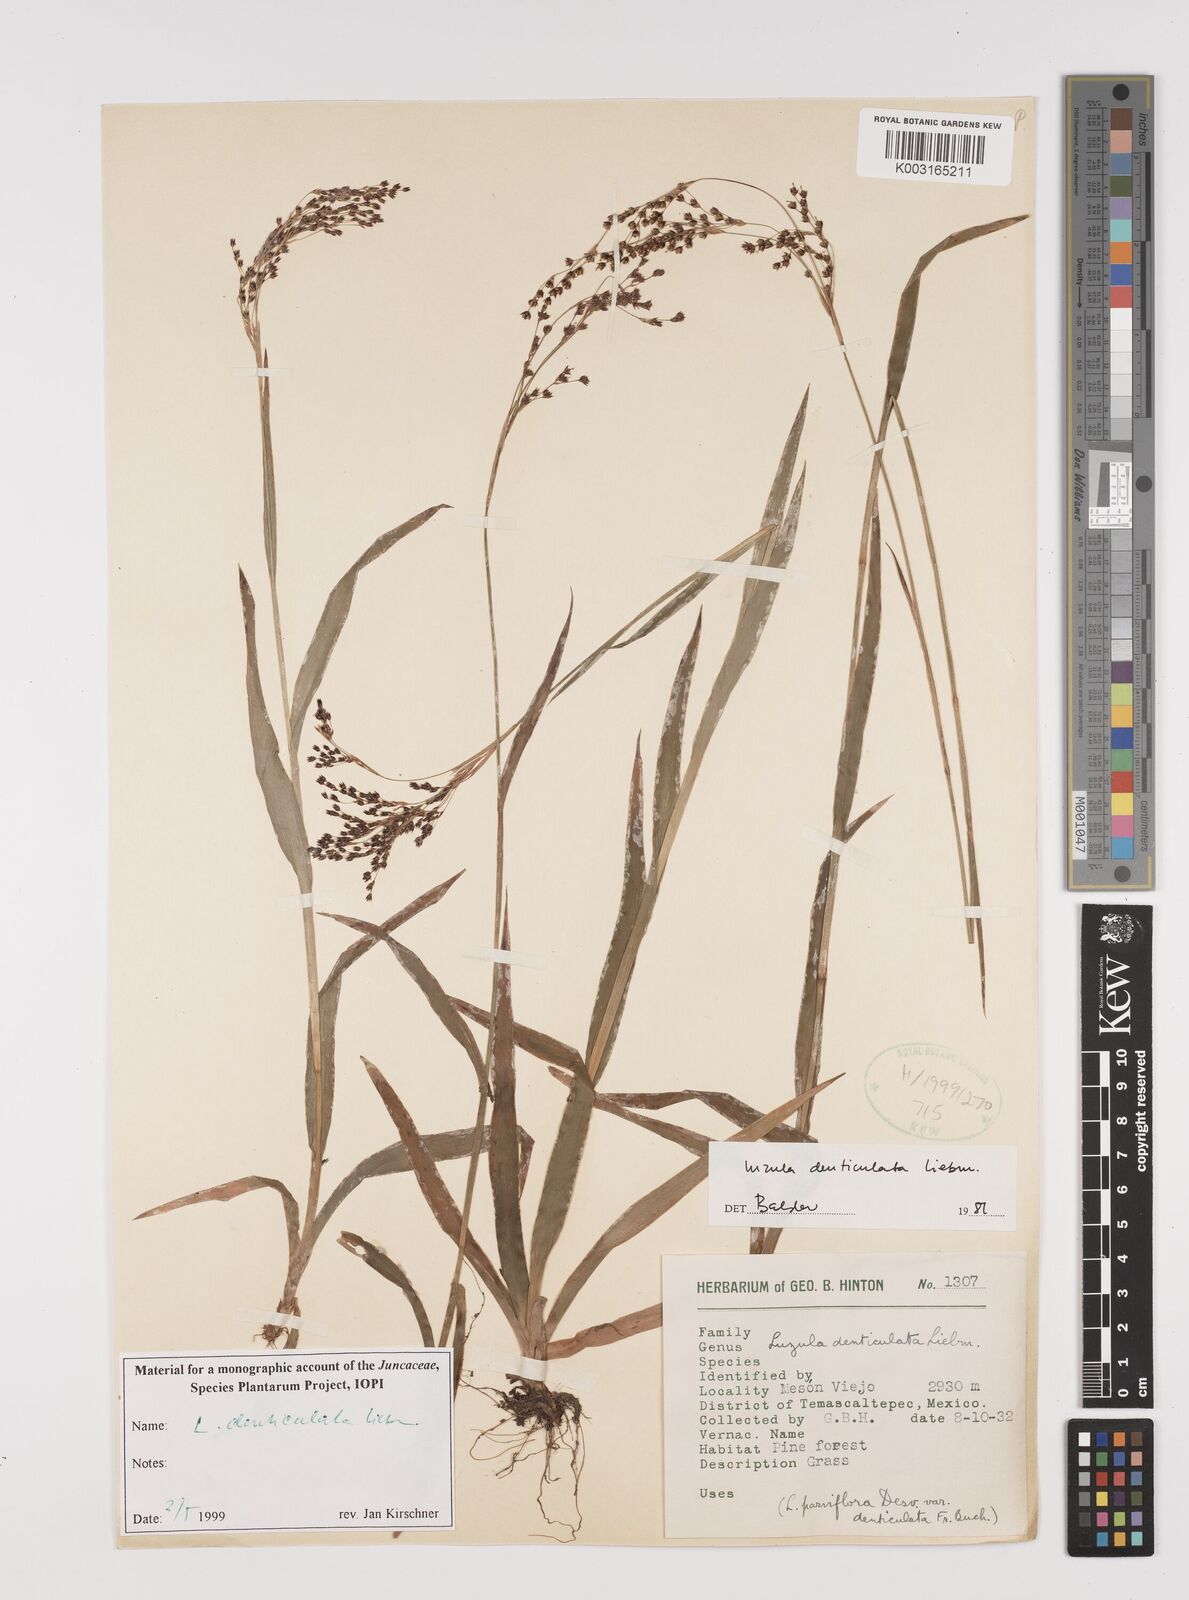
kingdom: Plantae
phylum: Tracheophyta
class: Liliopsida
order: Poales
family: Juncaceae
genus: Luzula
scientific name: Luzula gigantea
